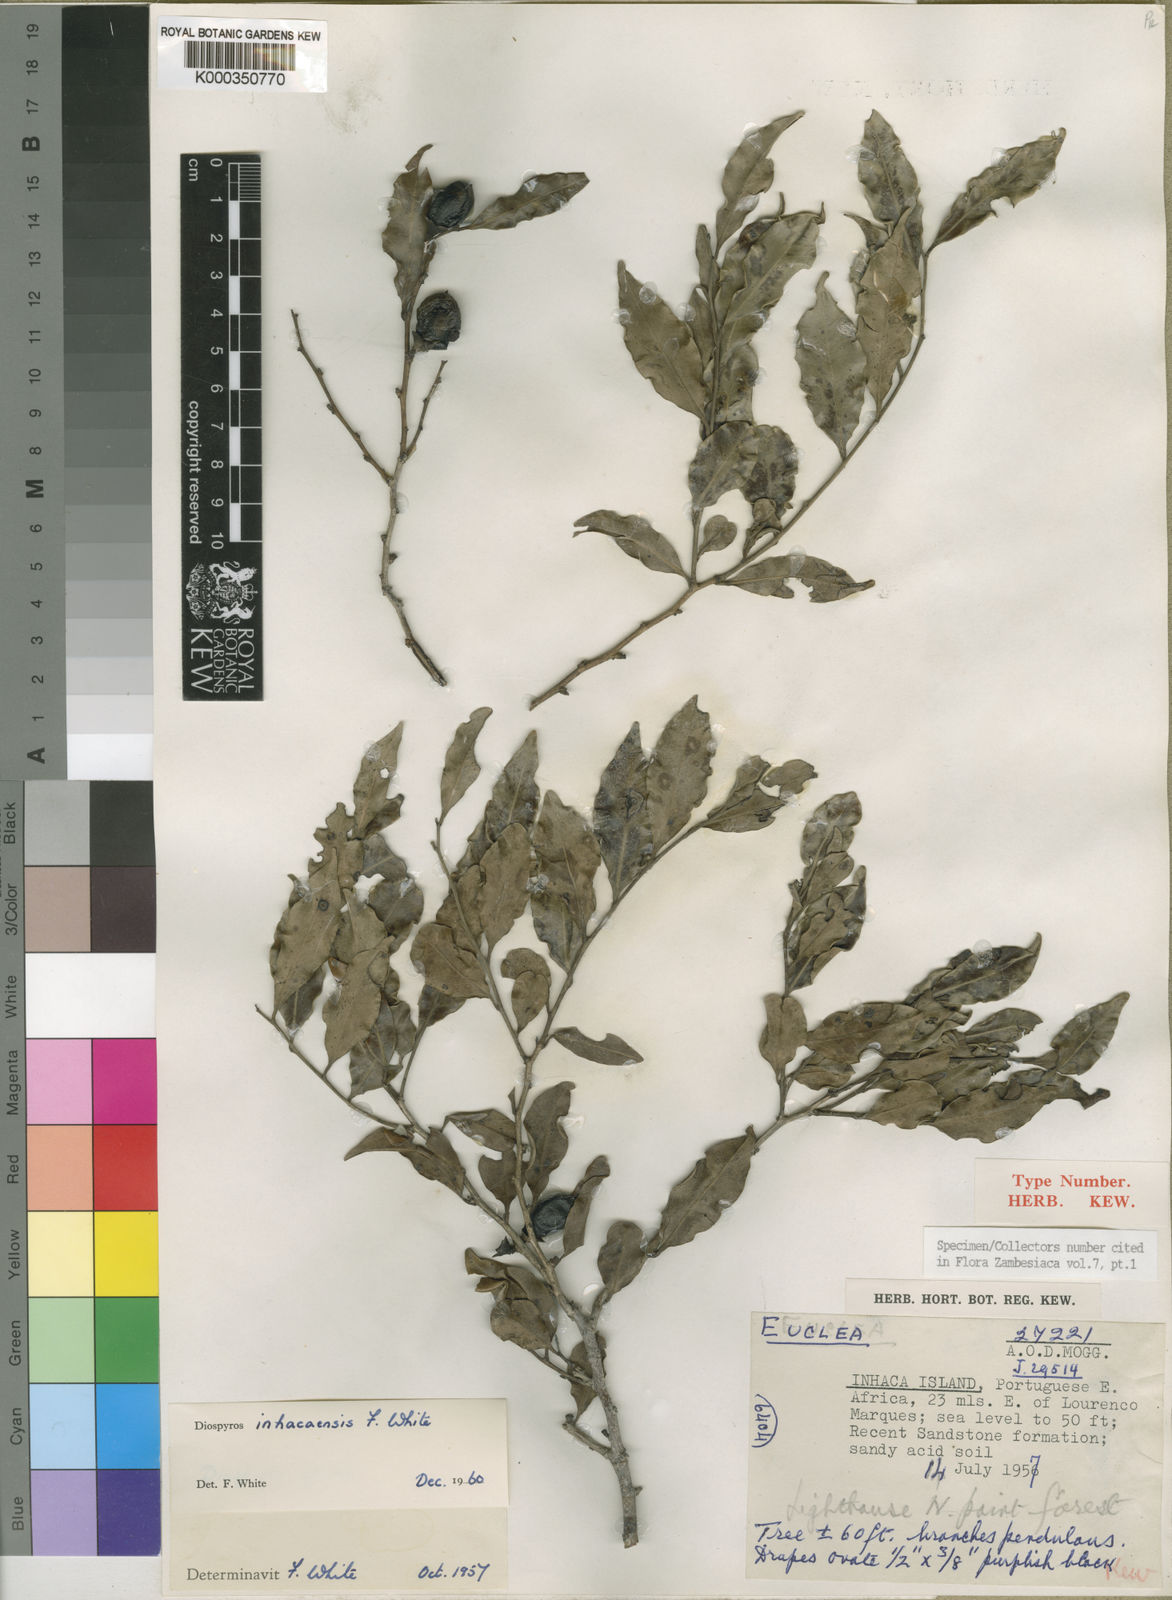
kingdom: Plantae
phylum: Tracheophyta
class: Magnoliopsida
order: Ericales
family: Ebenaceae
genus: Diospyros
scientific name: Diospyros inhacaensis
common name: Coastal jackal-berry
